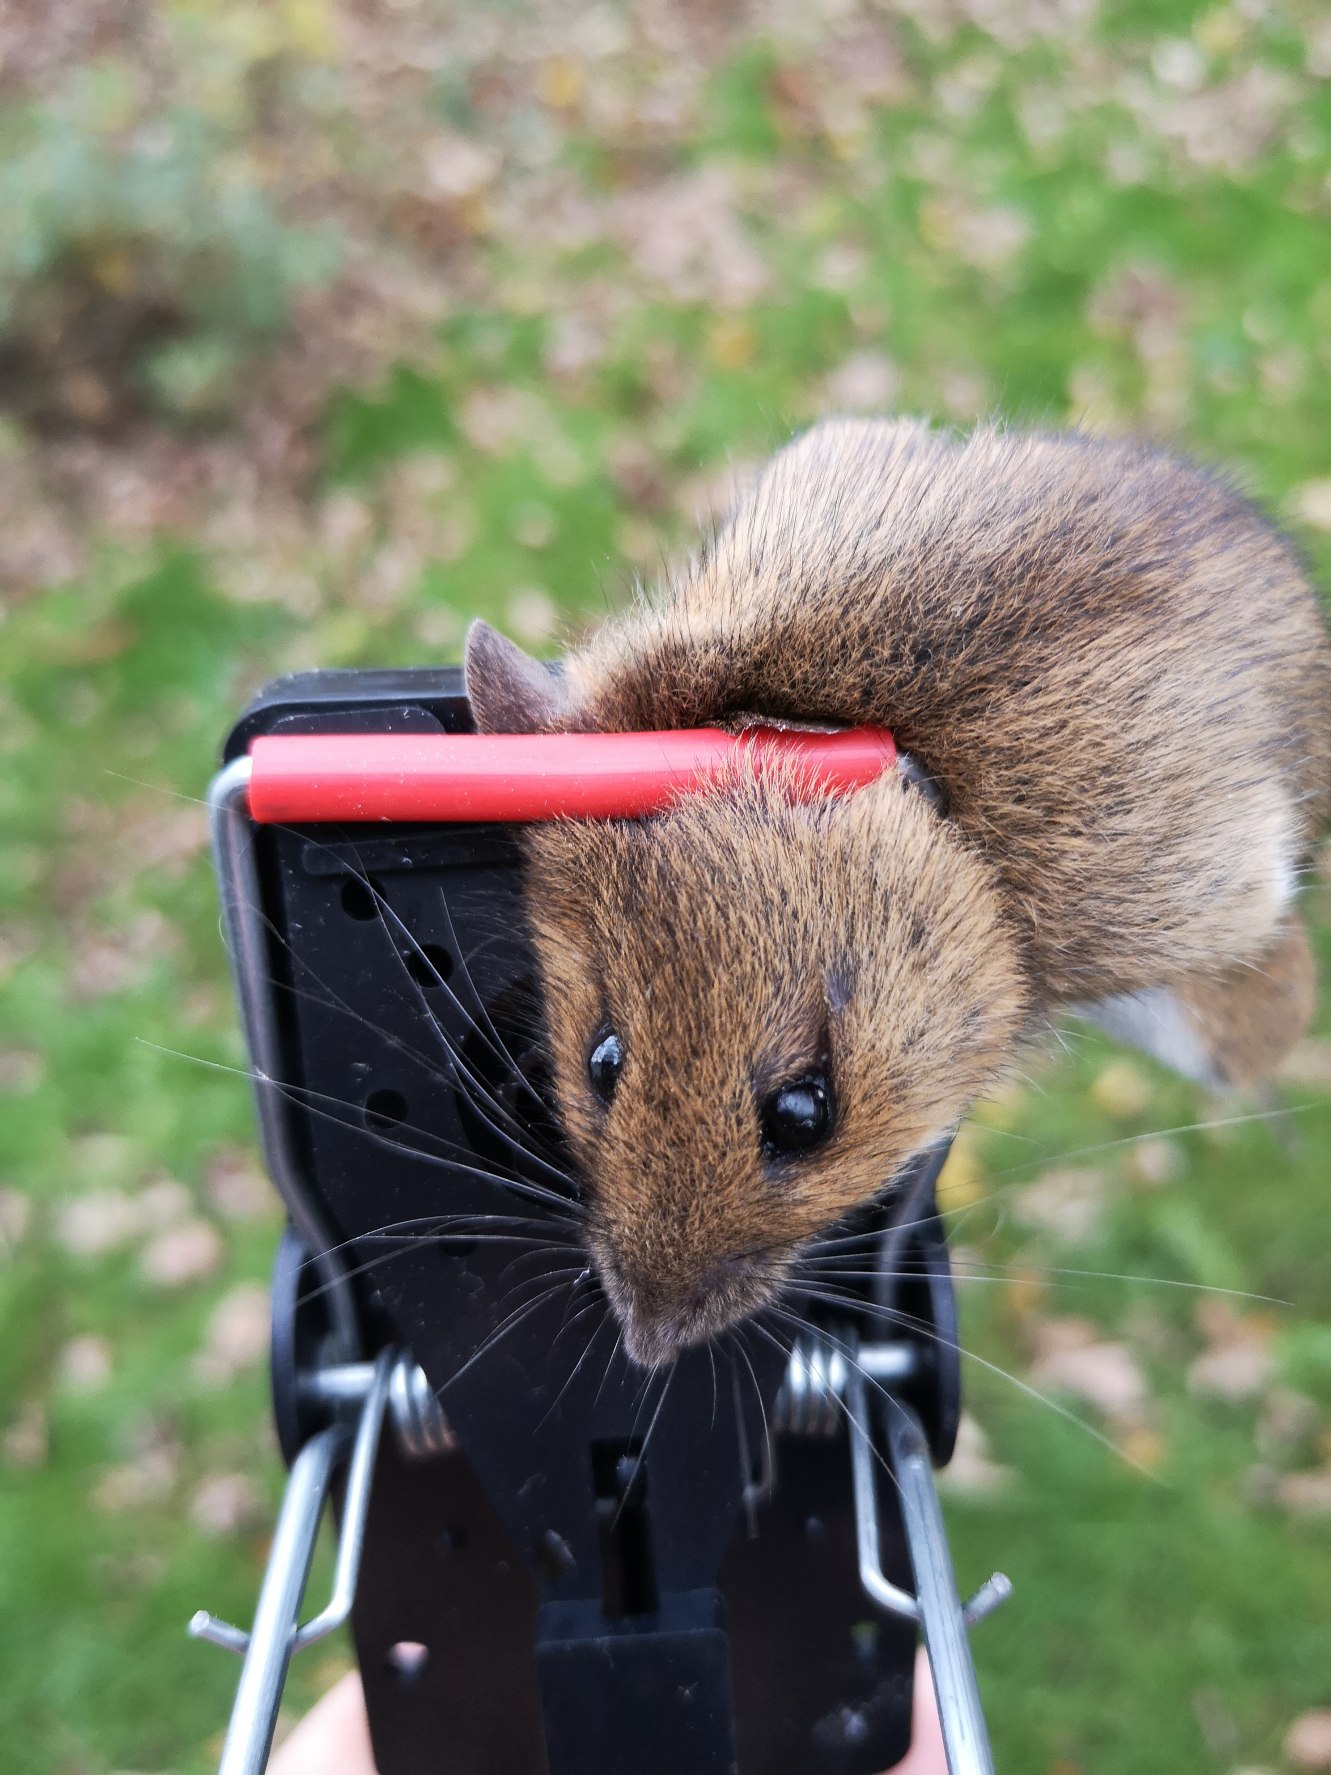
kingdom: Animalia
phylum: Chordata
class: Mammalia
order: Rodentia
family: Muridae
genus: Apodemus
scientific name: Apodemus flavicollis
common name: Halsbåndmus
